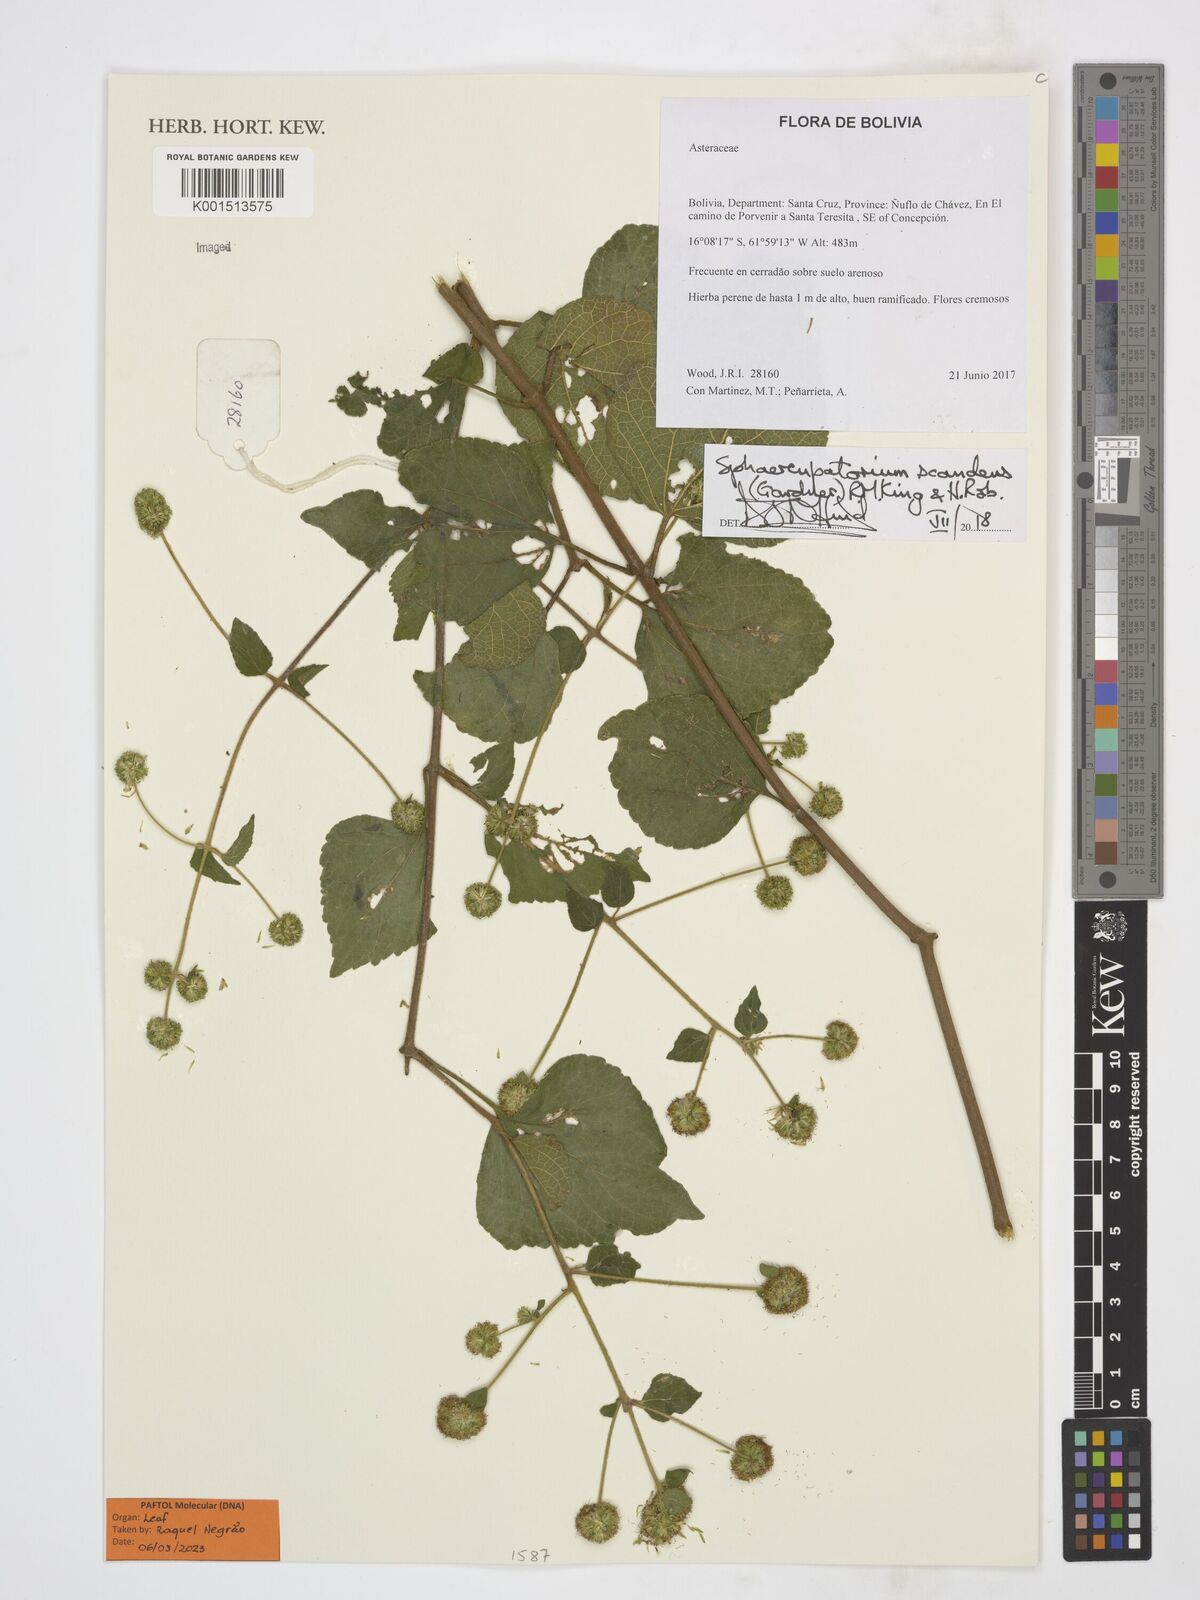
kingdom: Plantae
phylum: Tracheophyta
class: Magnoliopsida
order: Asterales
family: Asteraceae
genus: Sphaereupatorium
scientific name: Sphaereupatorium scandens
